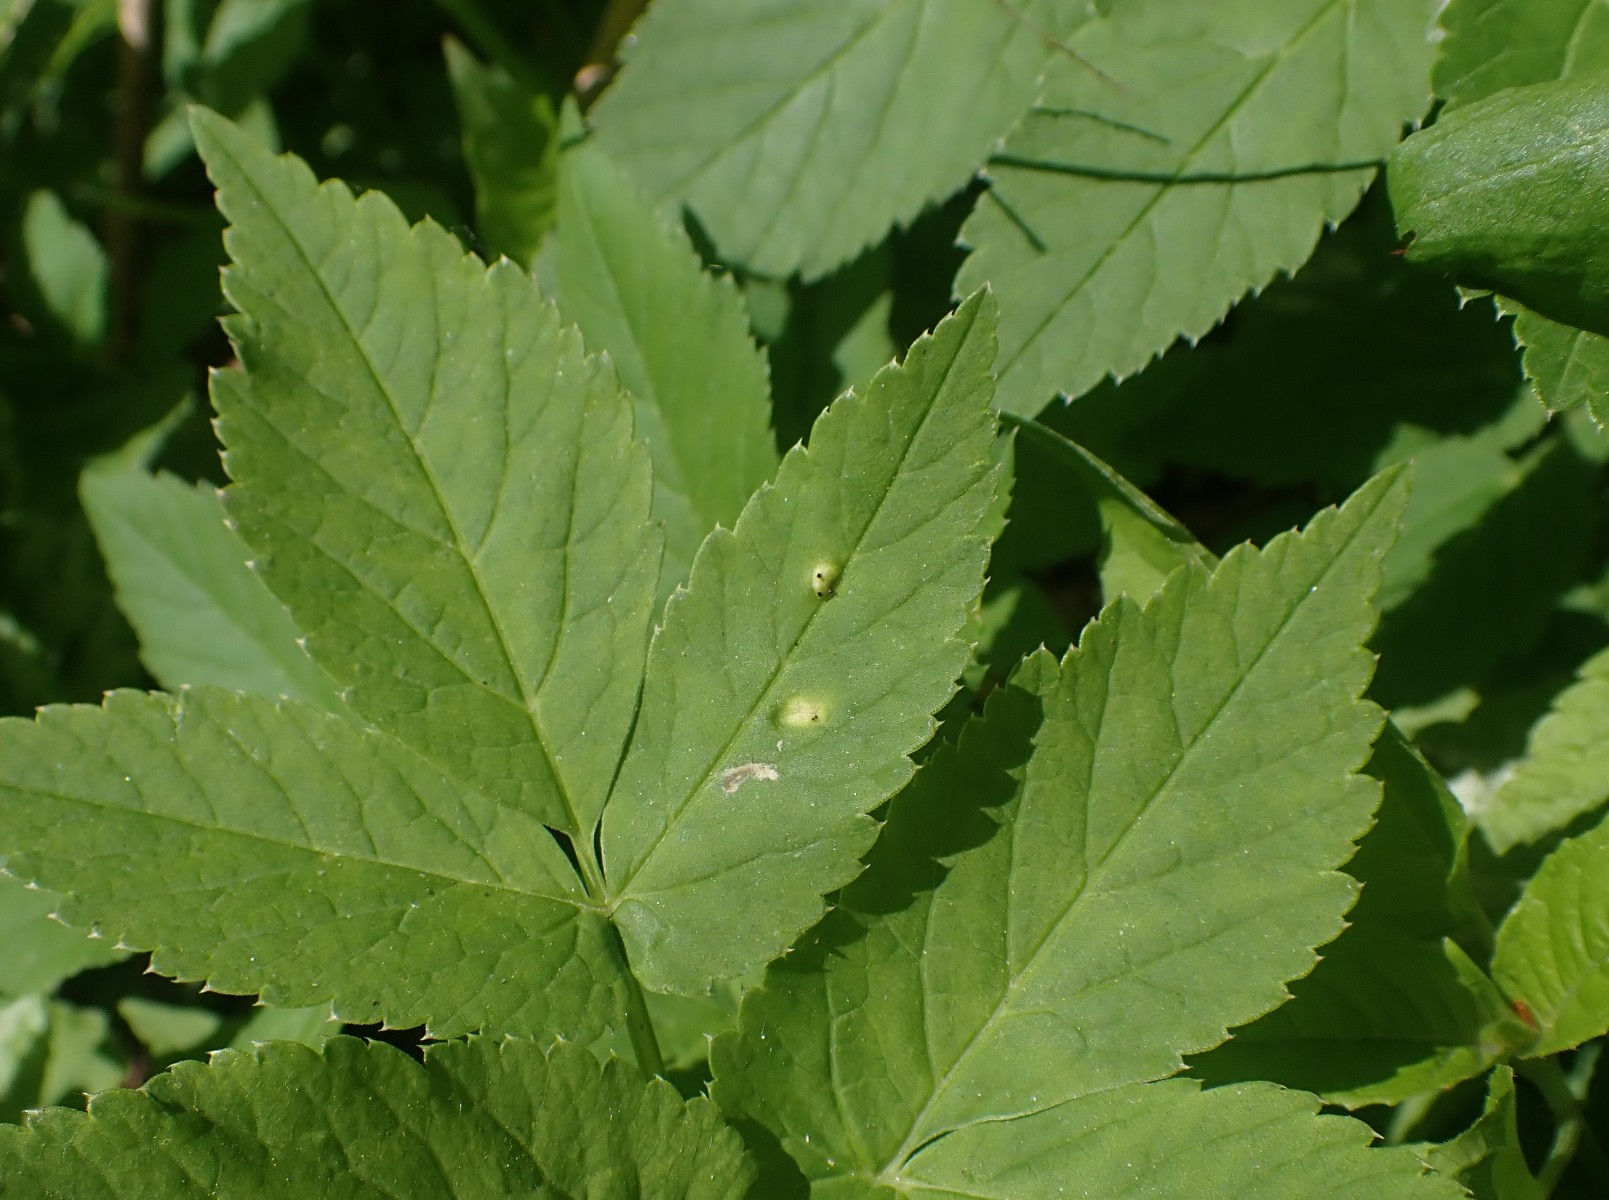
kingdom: Fungi
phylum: Basidiomycota
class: Pucciniomycetes
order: Pucciniales
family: Pucciniaceae
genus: Puccinia
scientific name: Puccinia
